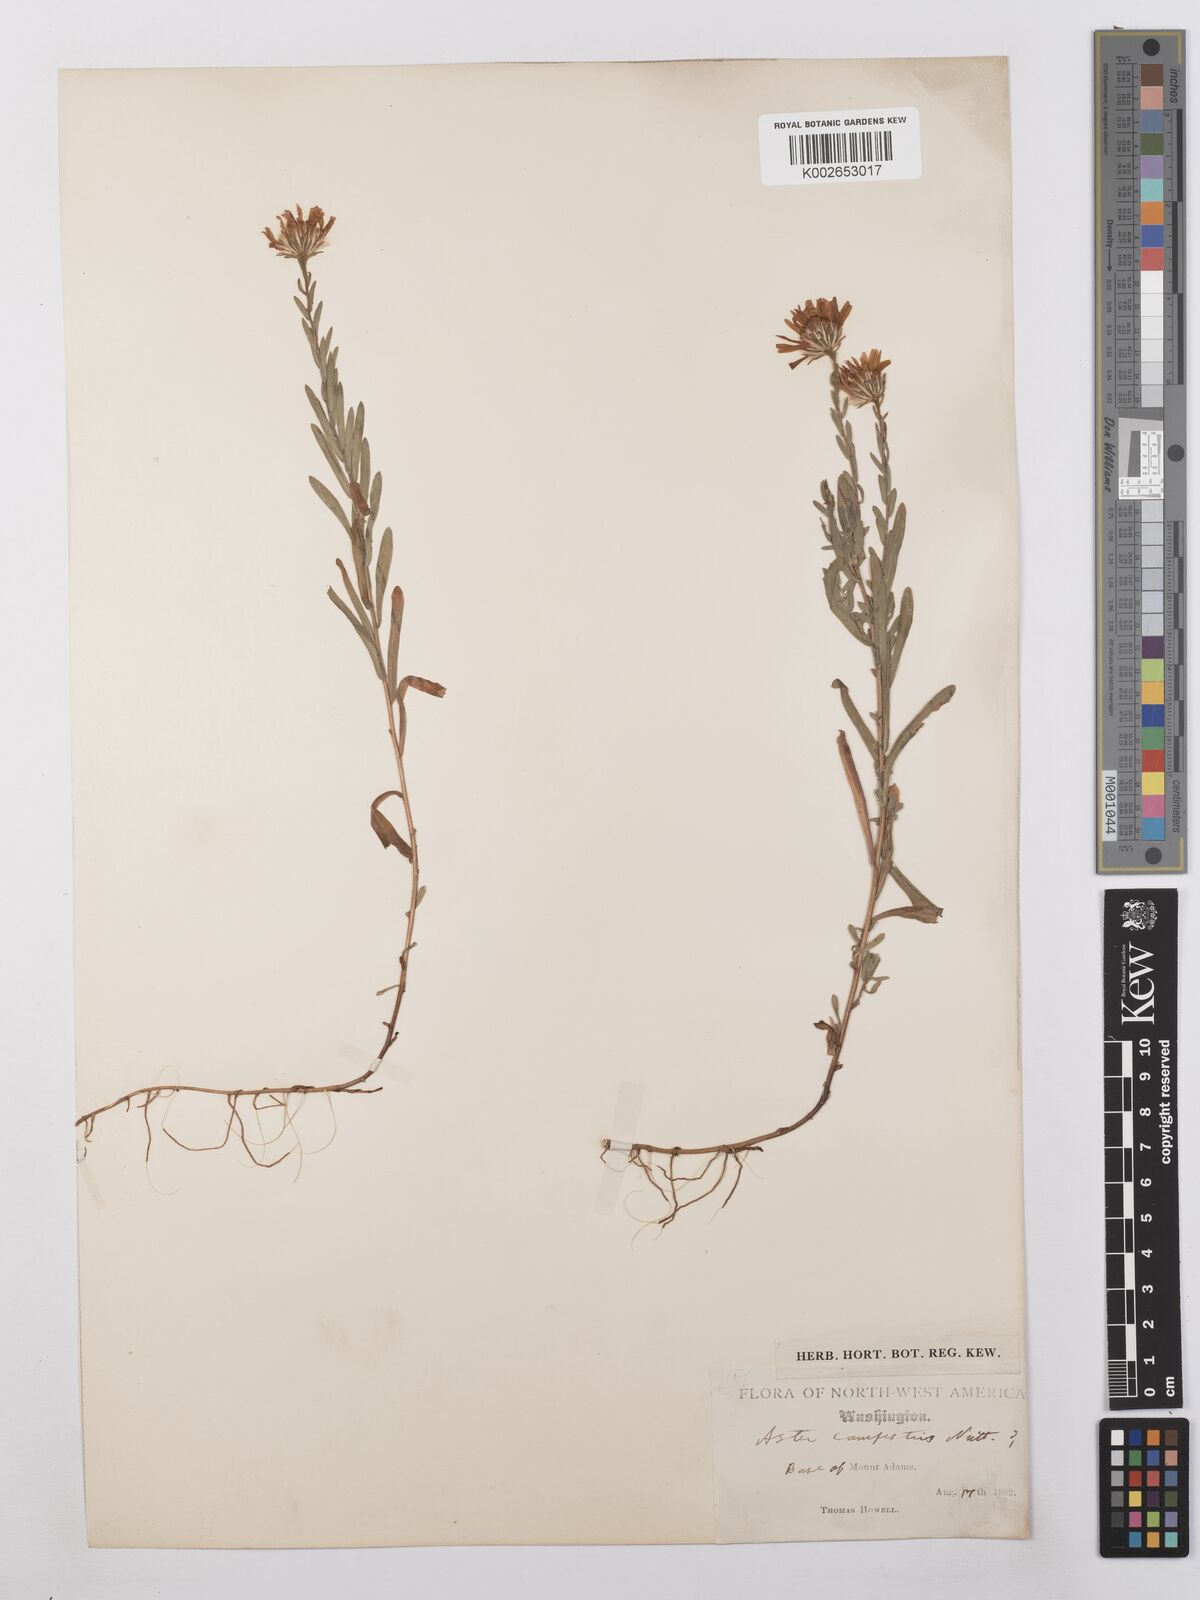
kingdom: Plantae
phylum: Tracheophyta
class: Magnoliopsida
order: Asterales
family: Asteraceae
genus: Symphyotrichum
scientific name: Symphyotrichum campestre
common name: Meadow aster
